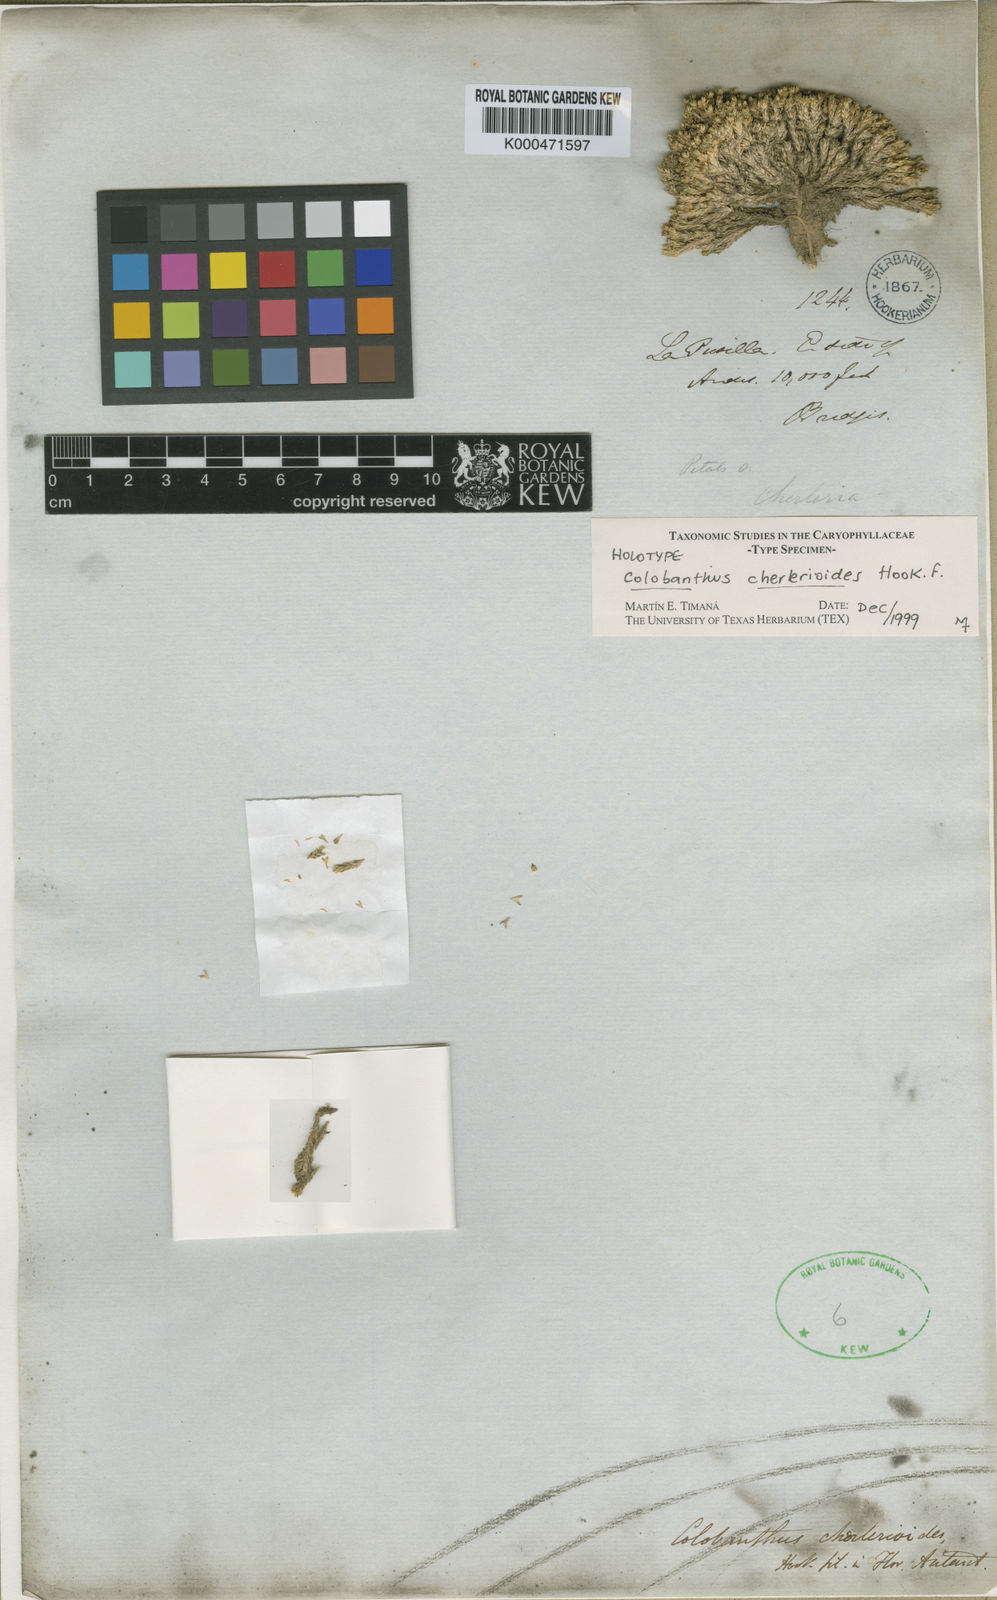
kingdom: Plantae
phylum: Tracheophyta
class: Magnoliopsida
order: Caryophyllales
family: Caryophyllaceae
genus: Colobanthus
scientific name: Colobanthus quitensis
